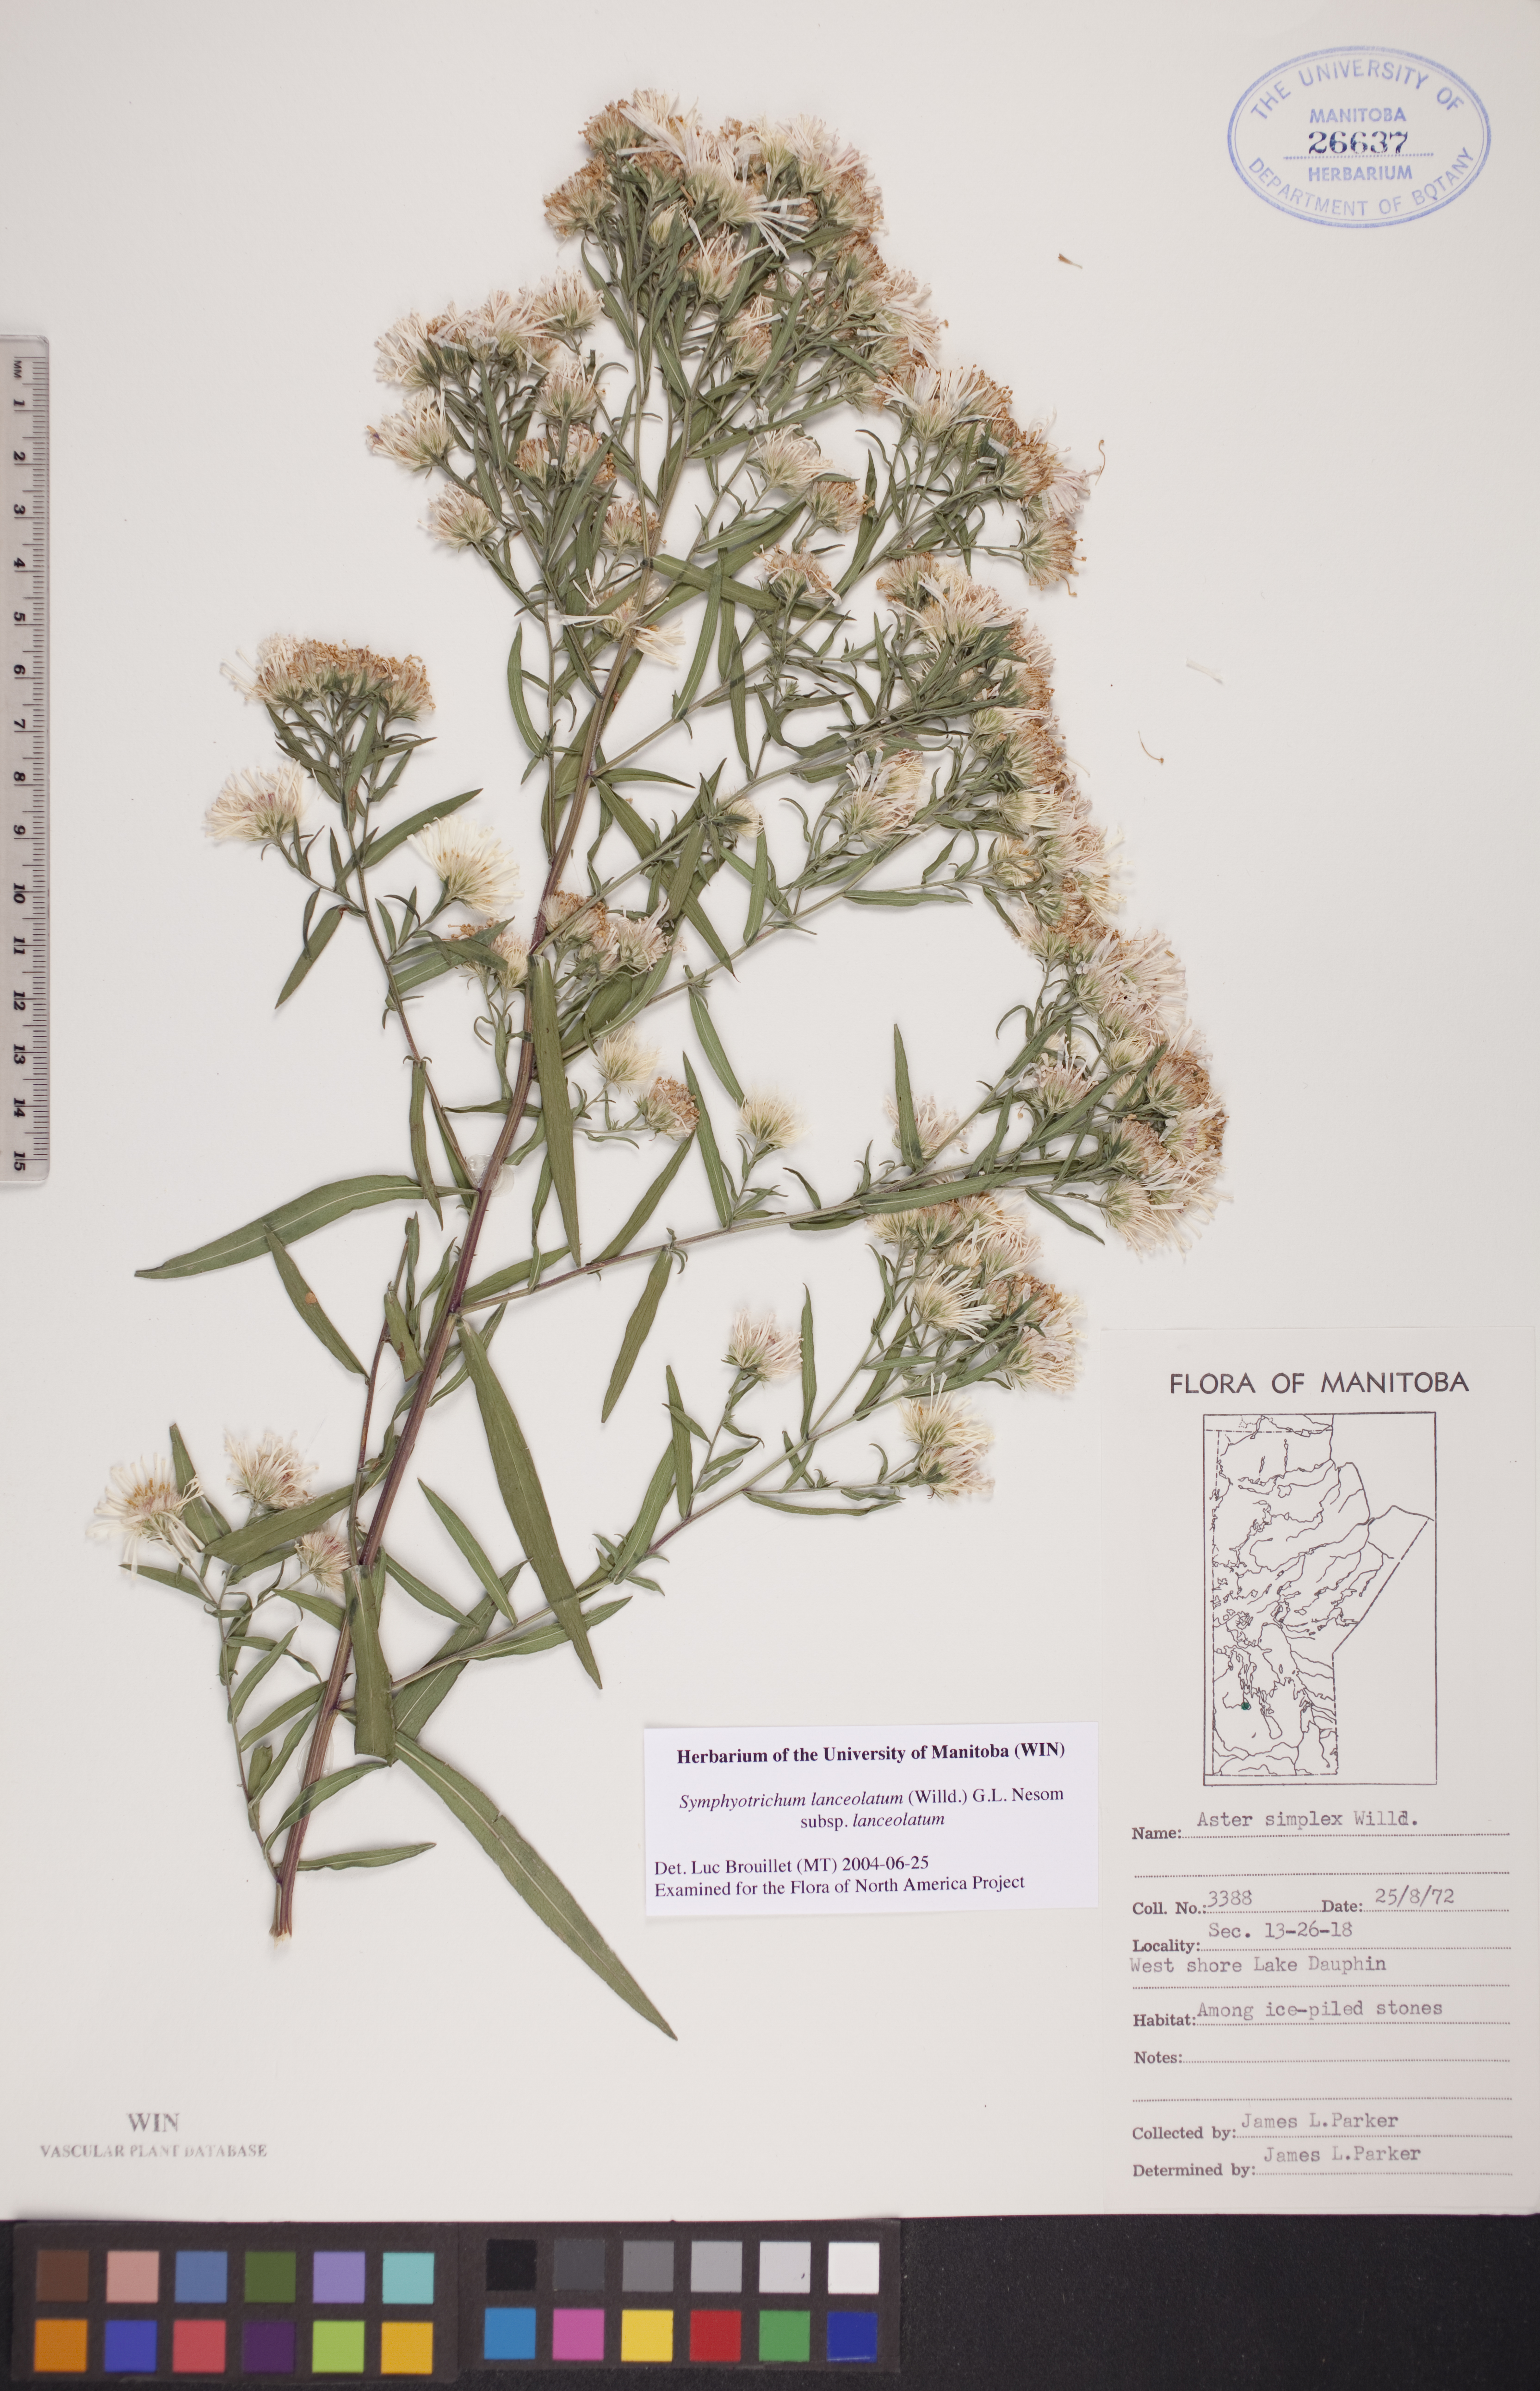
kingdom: Plantae
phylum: Tracheophyta
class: Magnoliopsida
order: Asterales
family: Asteraceae
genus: Symphyotrichum
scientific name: Symphyotrichum lanceolatum
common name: Panicled aster
